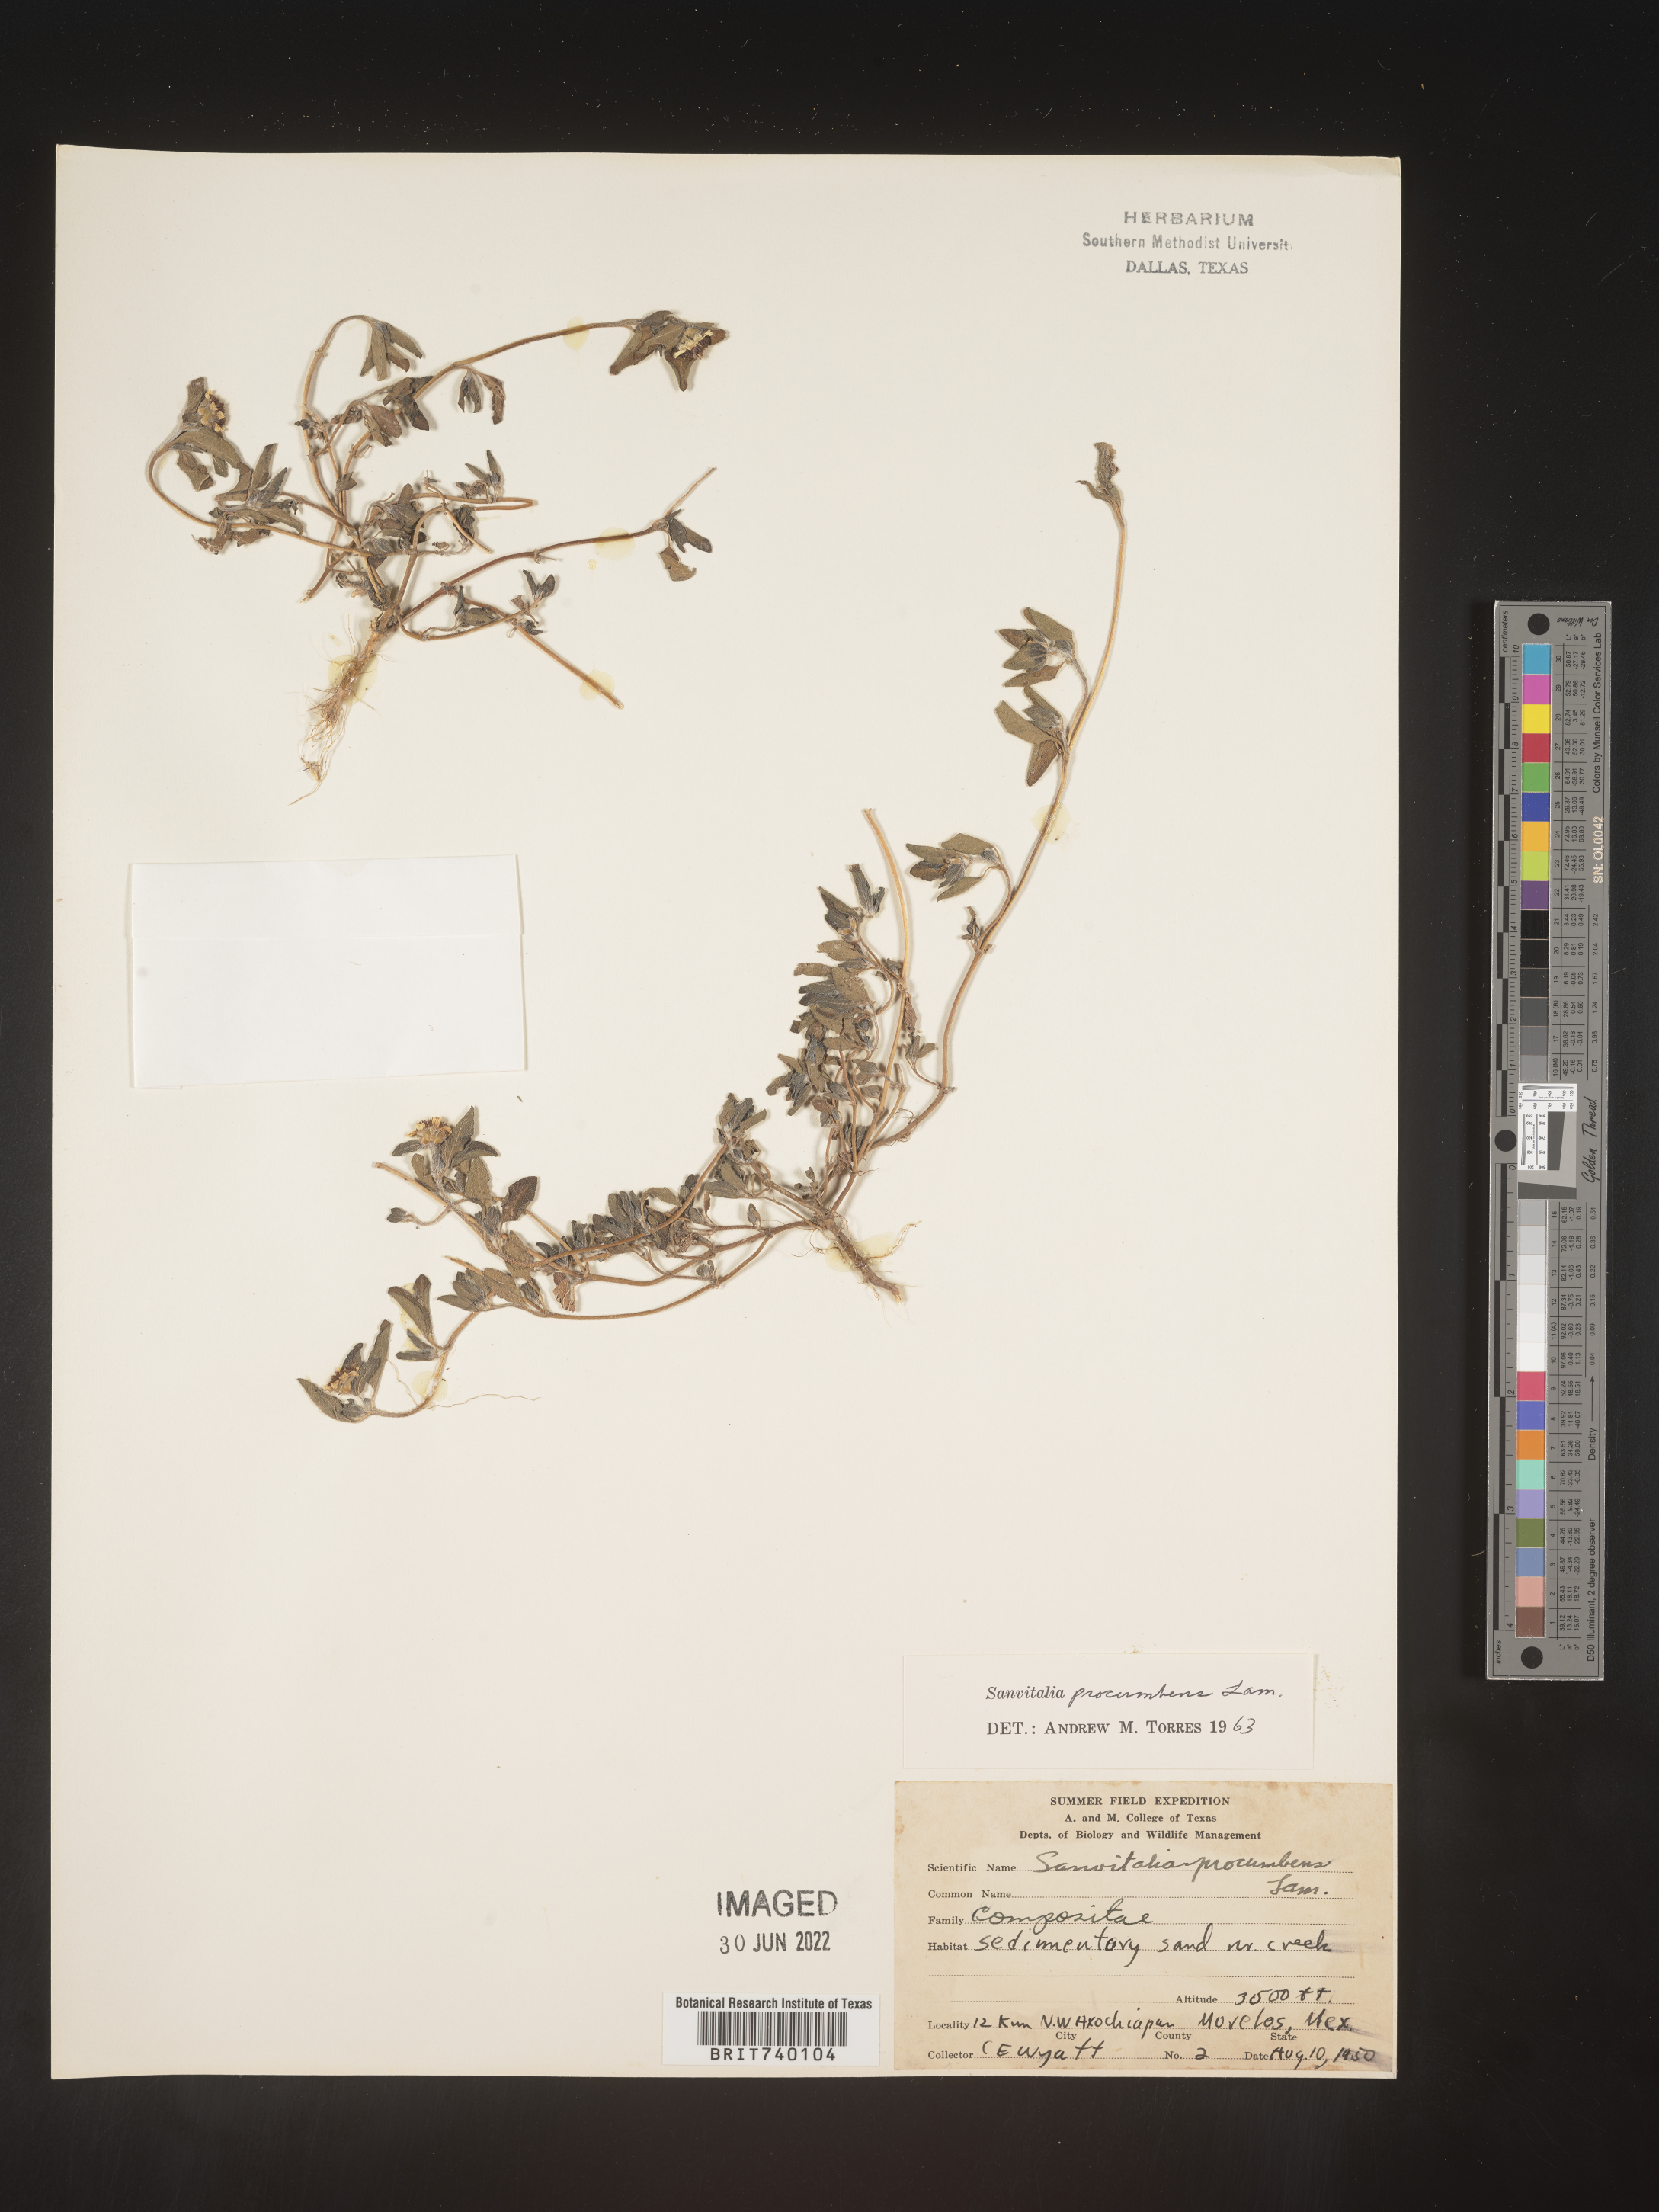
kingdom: Plantae
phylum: Tracheophyta
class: Magnoliopsida
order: Asterales
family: Asteraceae
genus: Sanvitalia
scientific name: Sanvitalia
